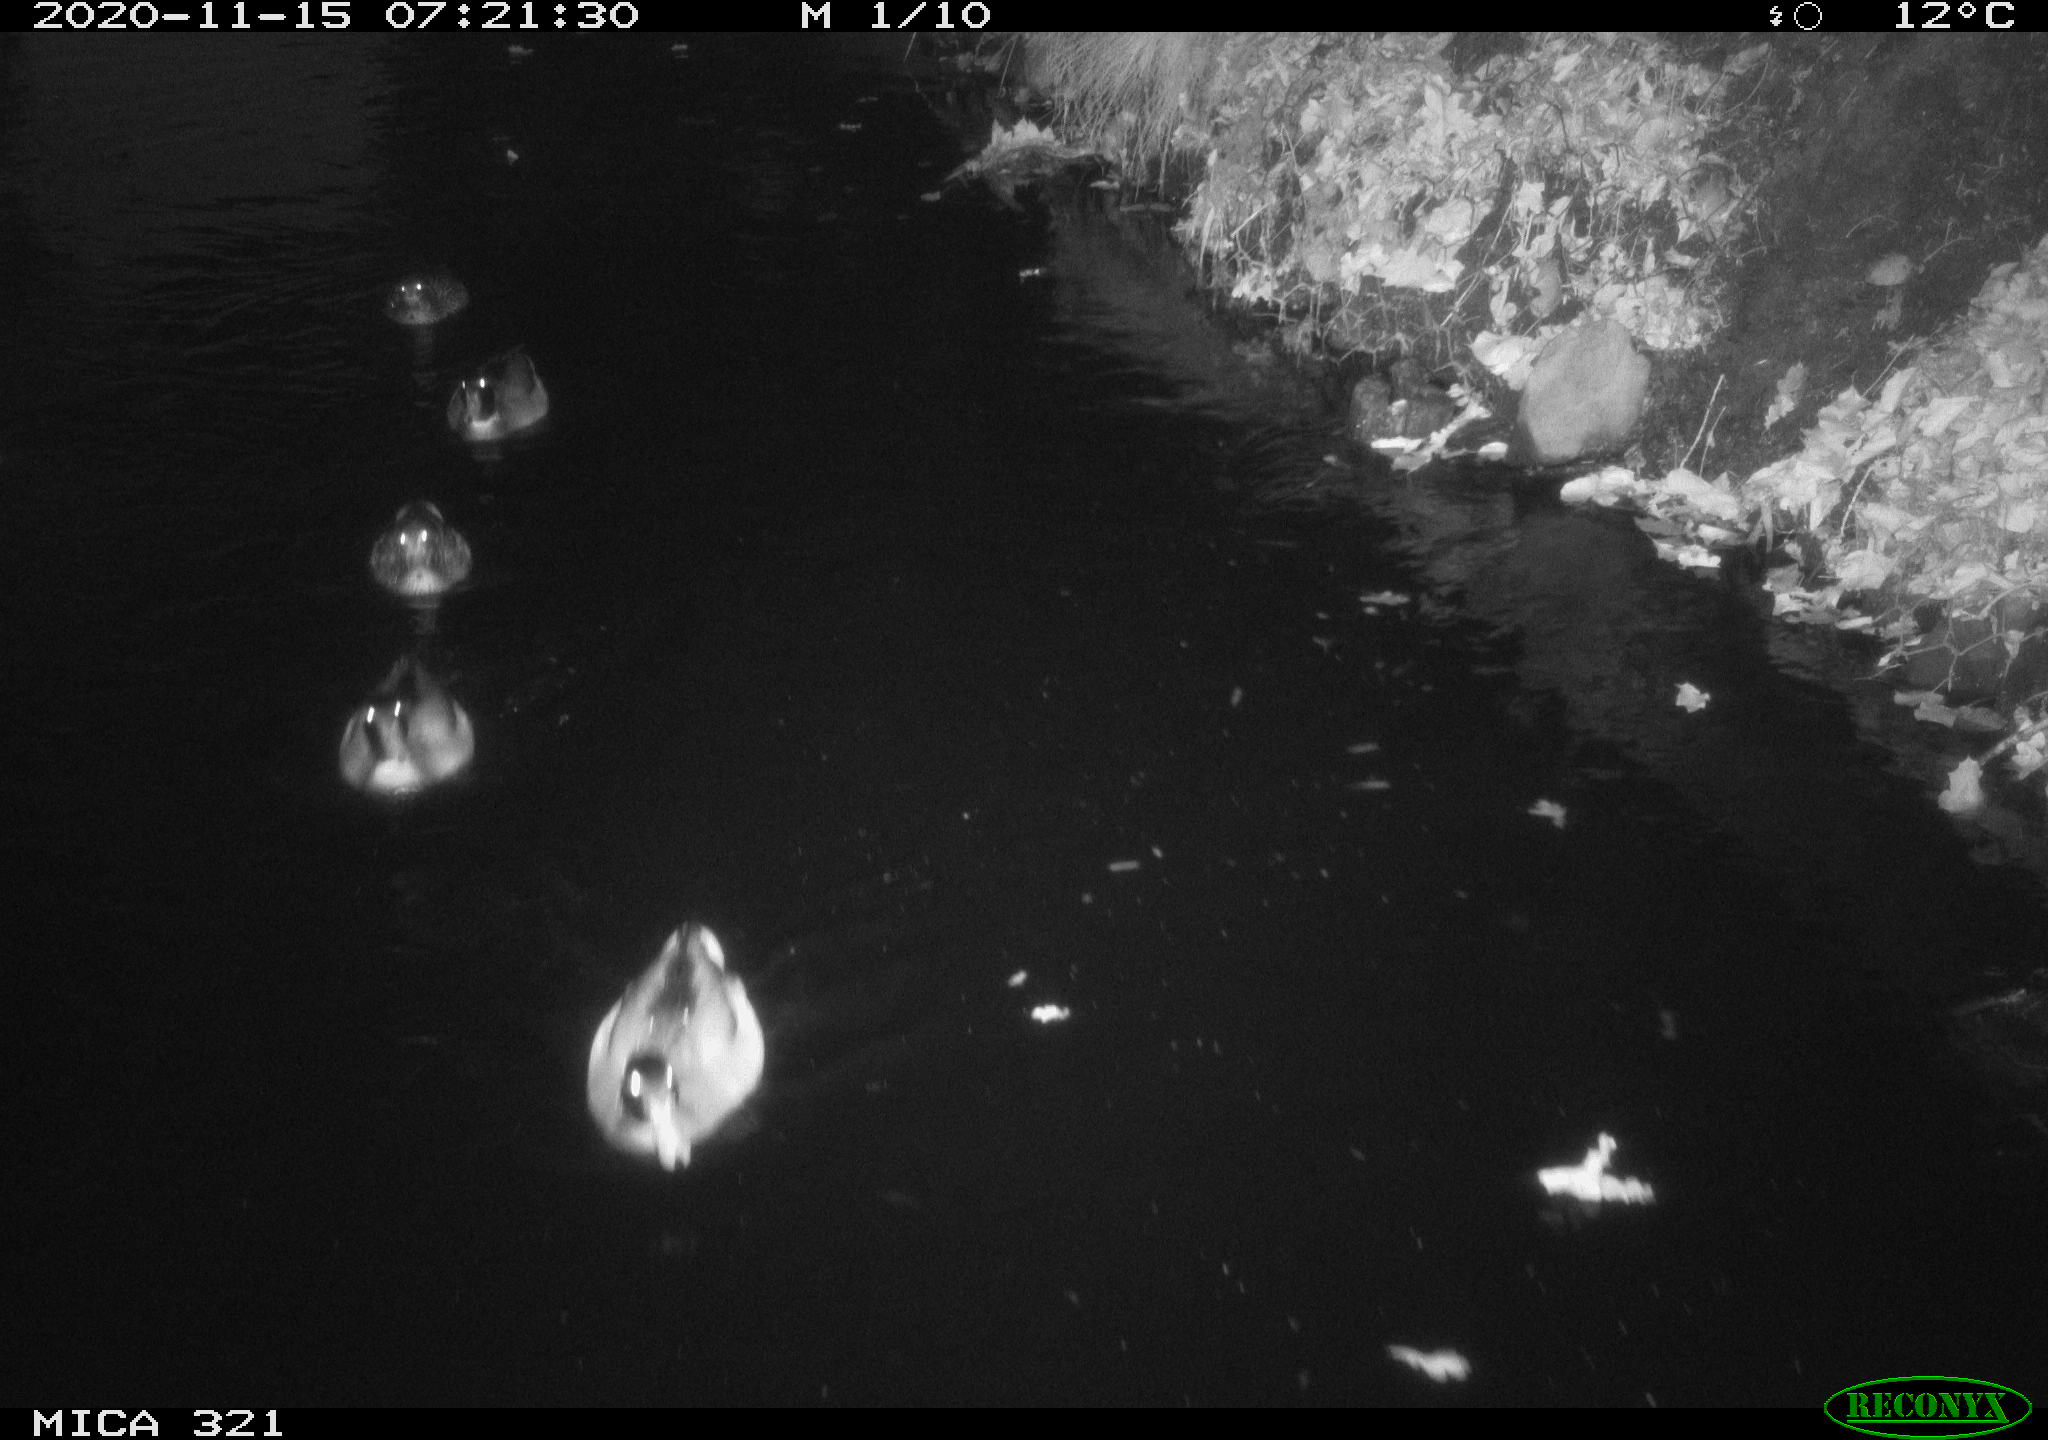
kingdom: Animalia
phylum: Chordata
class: Aves
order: Anseriformes
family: Anatidae
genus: Anas
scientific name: Anas platyrhynchos
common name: Mallard
